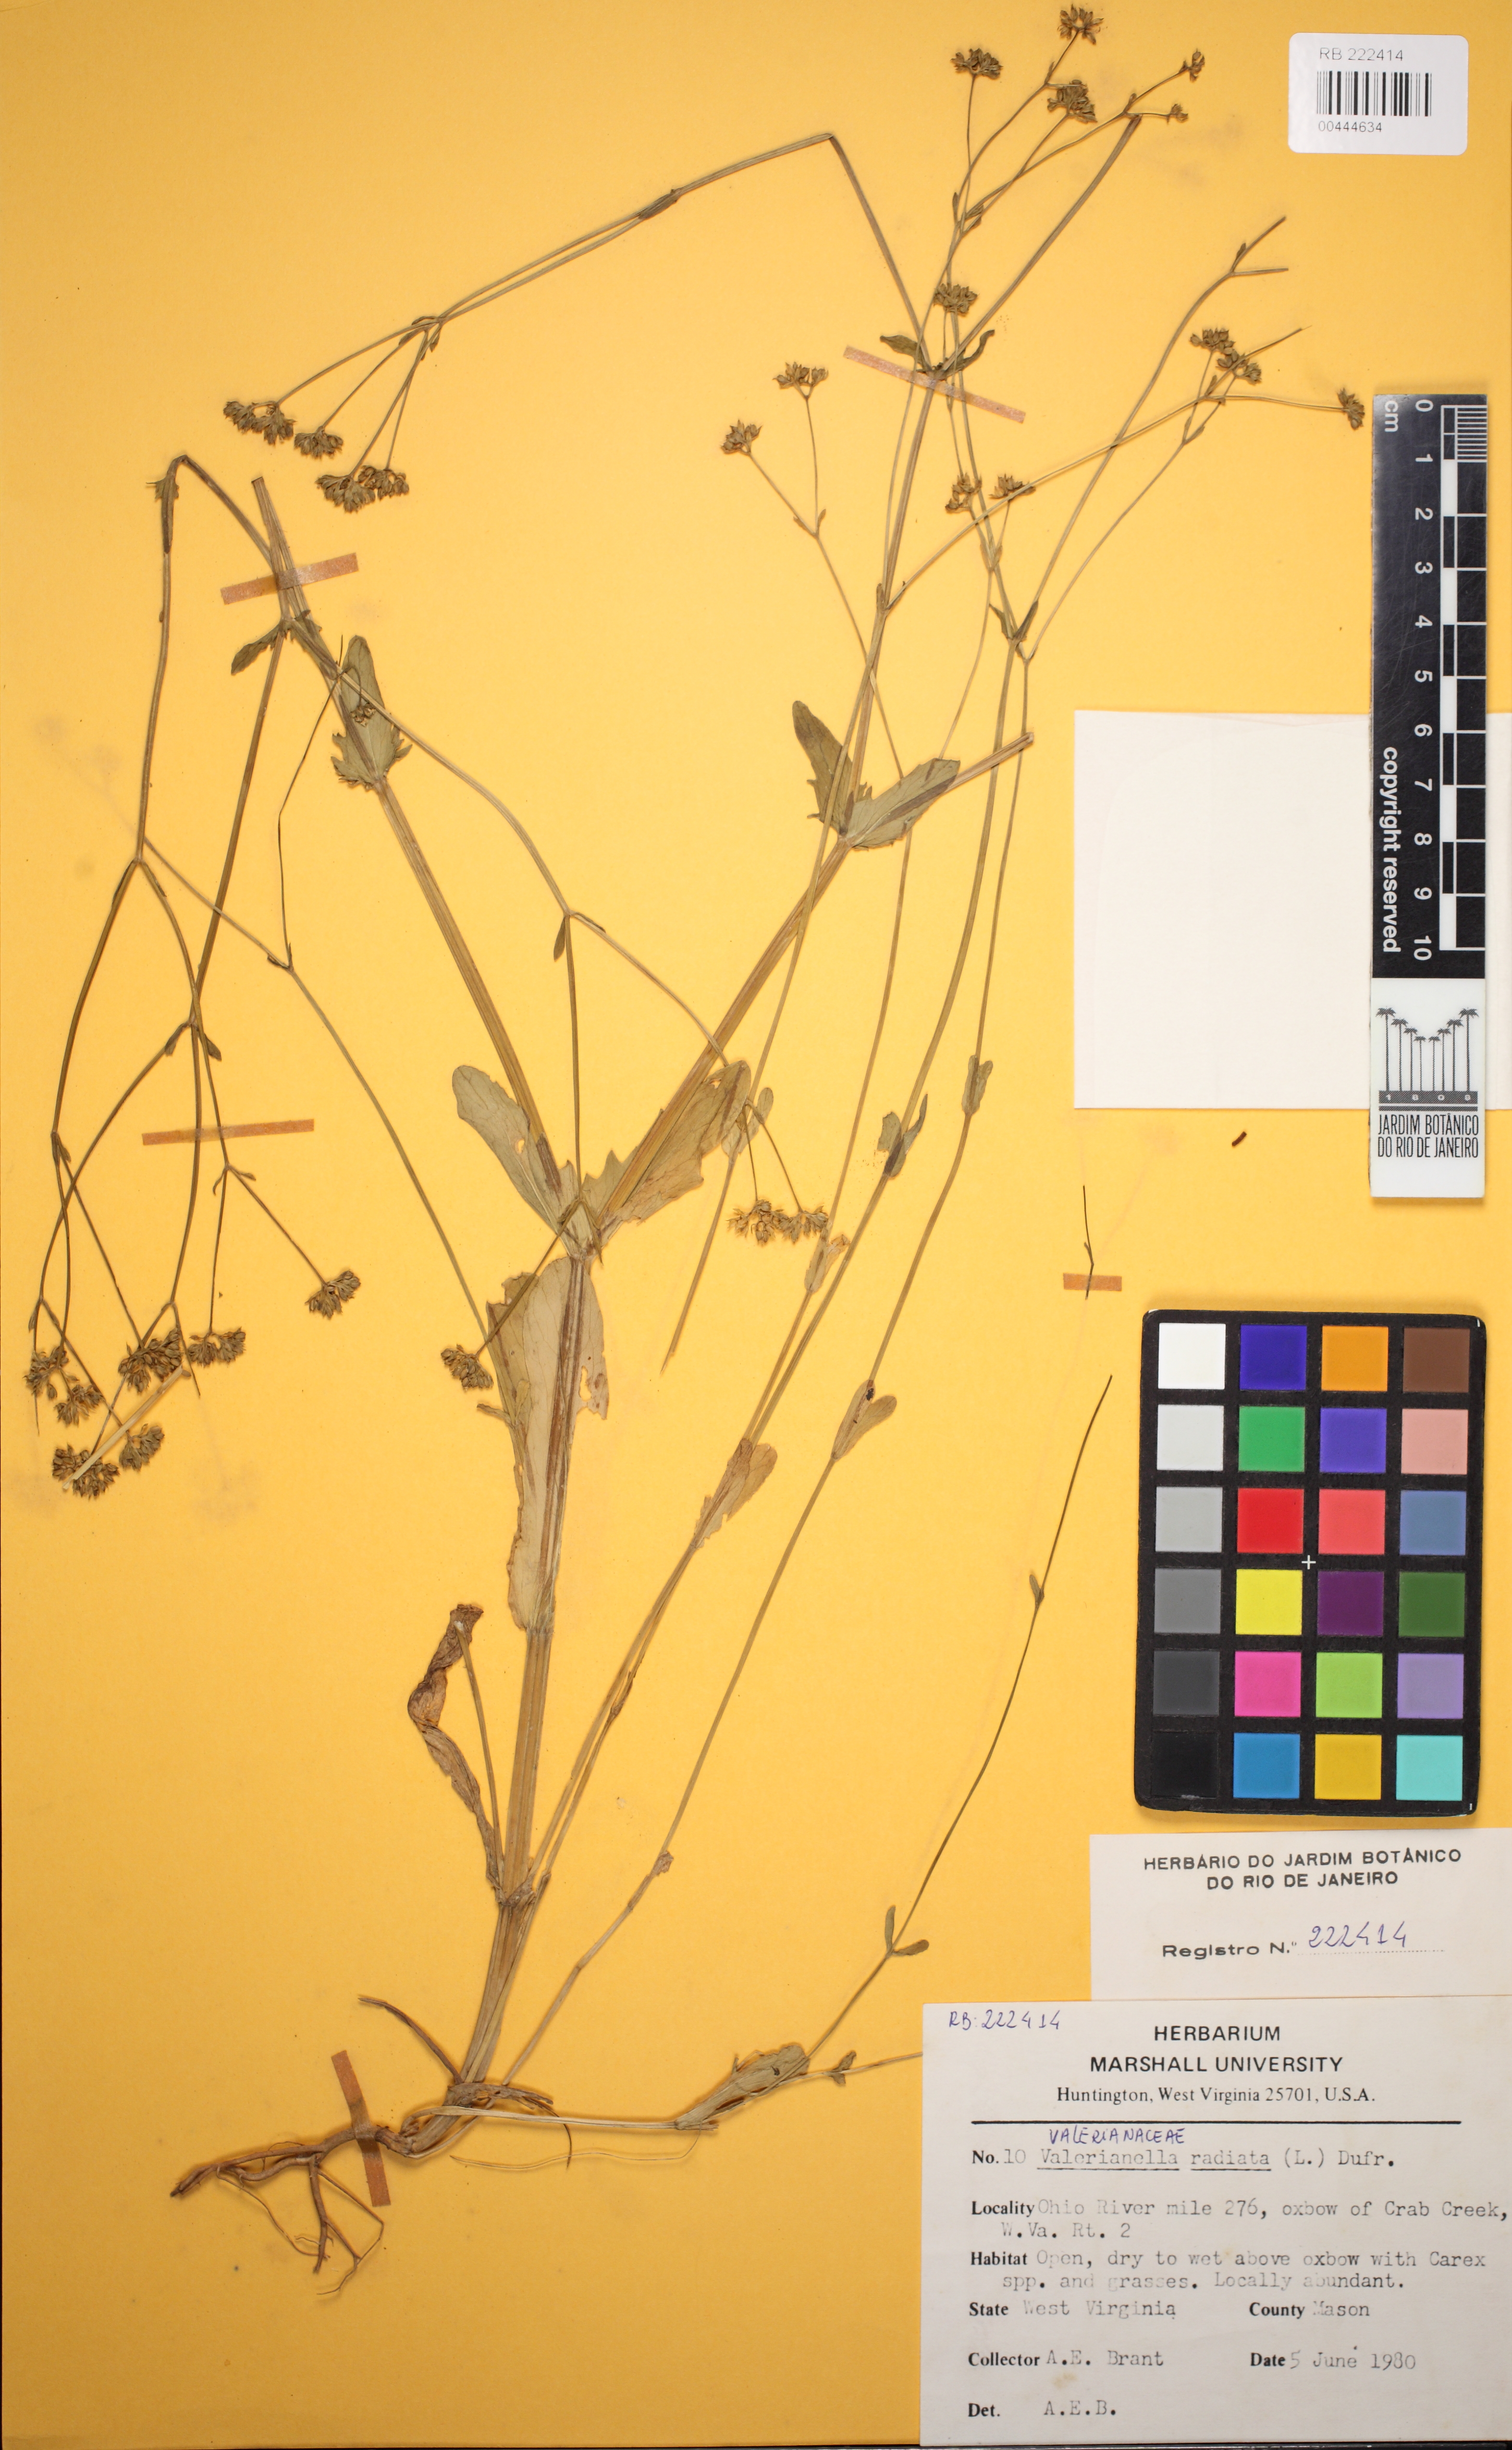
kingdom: Plantae
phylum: Tracheophyta
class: Magnoliopsida
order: Dipsacales
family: Caprifoliaceae
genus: Valerianella
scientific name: Valerianella radiata
